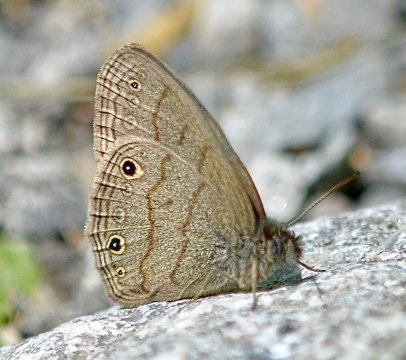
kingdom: Animalia
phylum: Arthropoda
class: Insecta
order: Lepidoptera
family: Nymphalidae
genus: Hermeuptychia
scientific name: Hermeuptychia hermes
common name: Carolina Satyr
